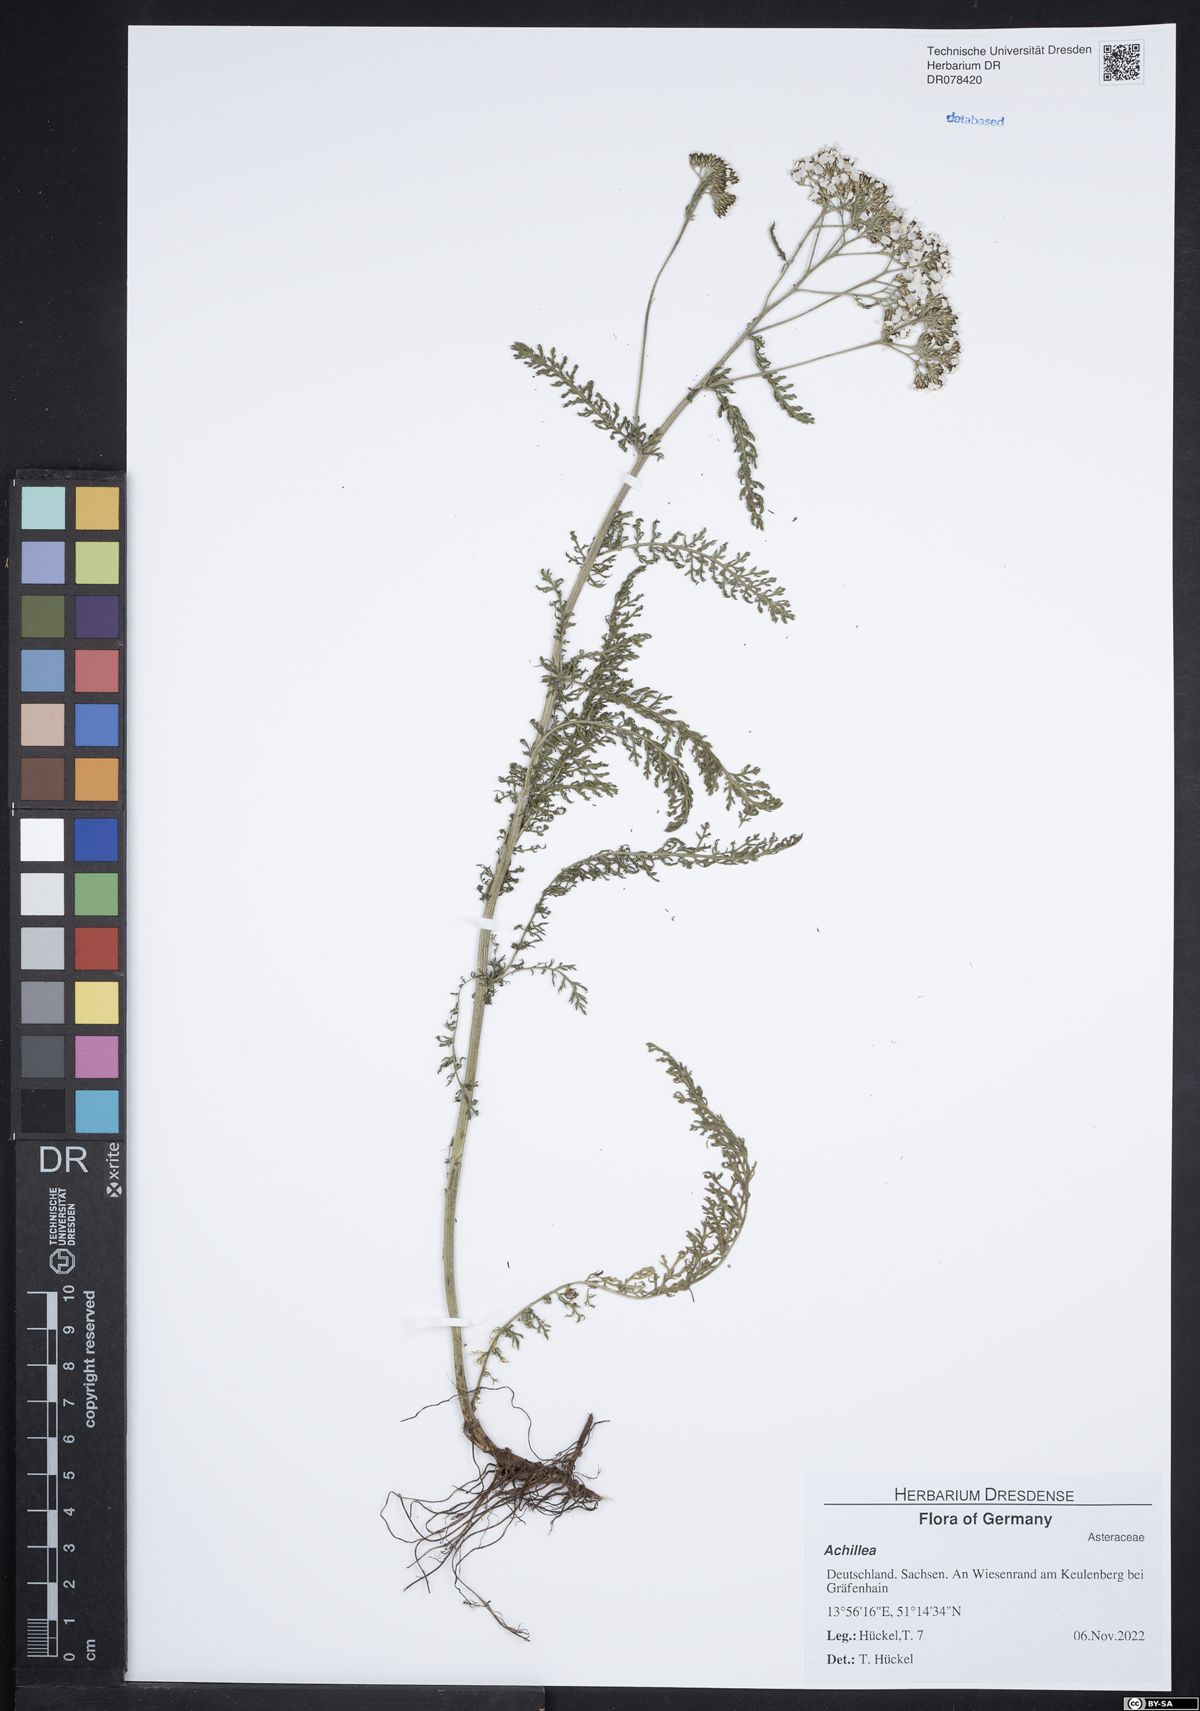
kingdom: Plantae
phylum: Tracheophyta
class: Magnoliopsida
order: Asterales
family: Asteraceae
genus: Achillea
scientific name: Achillea
